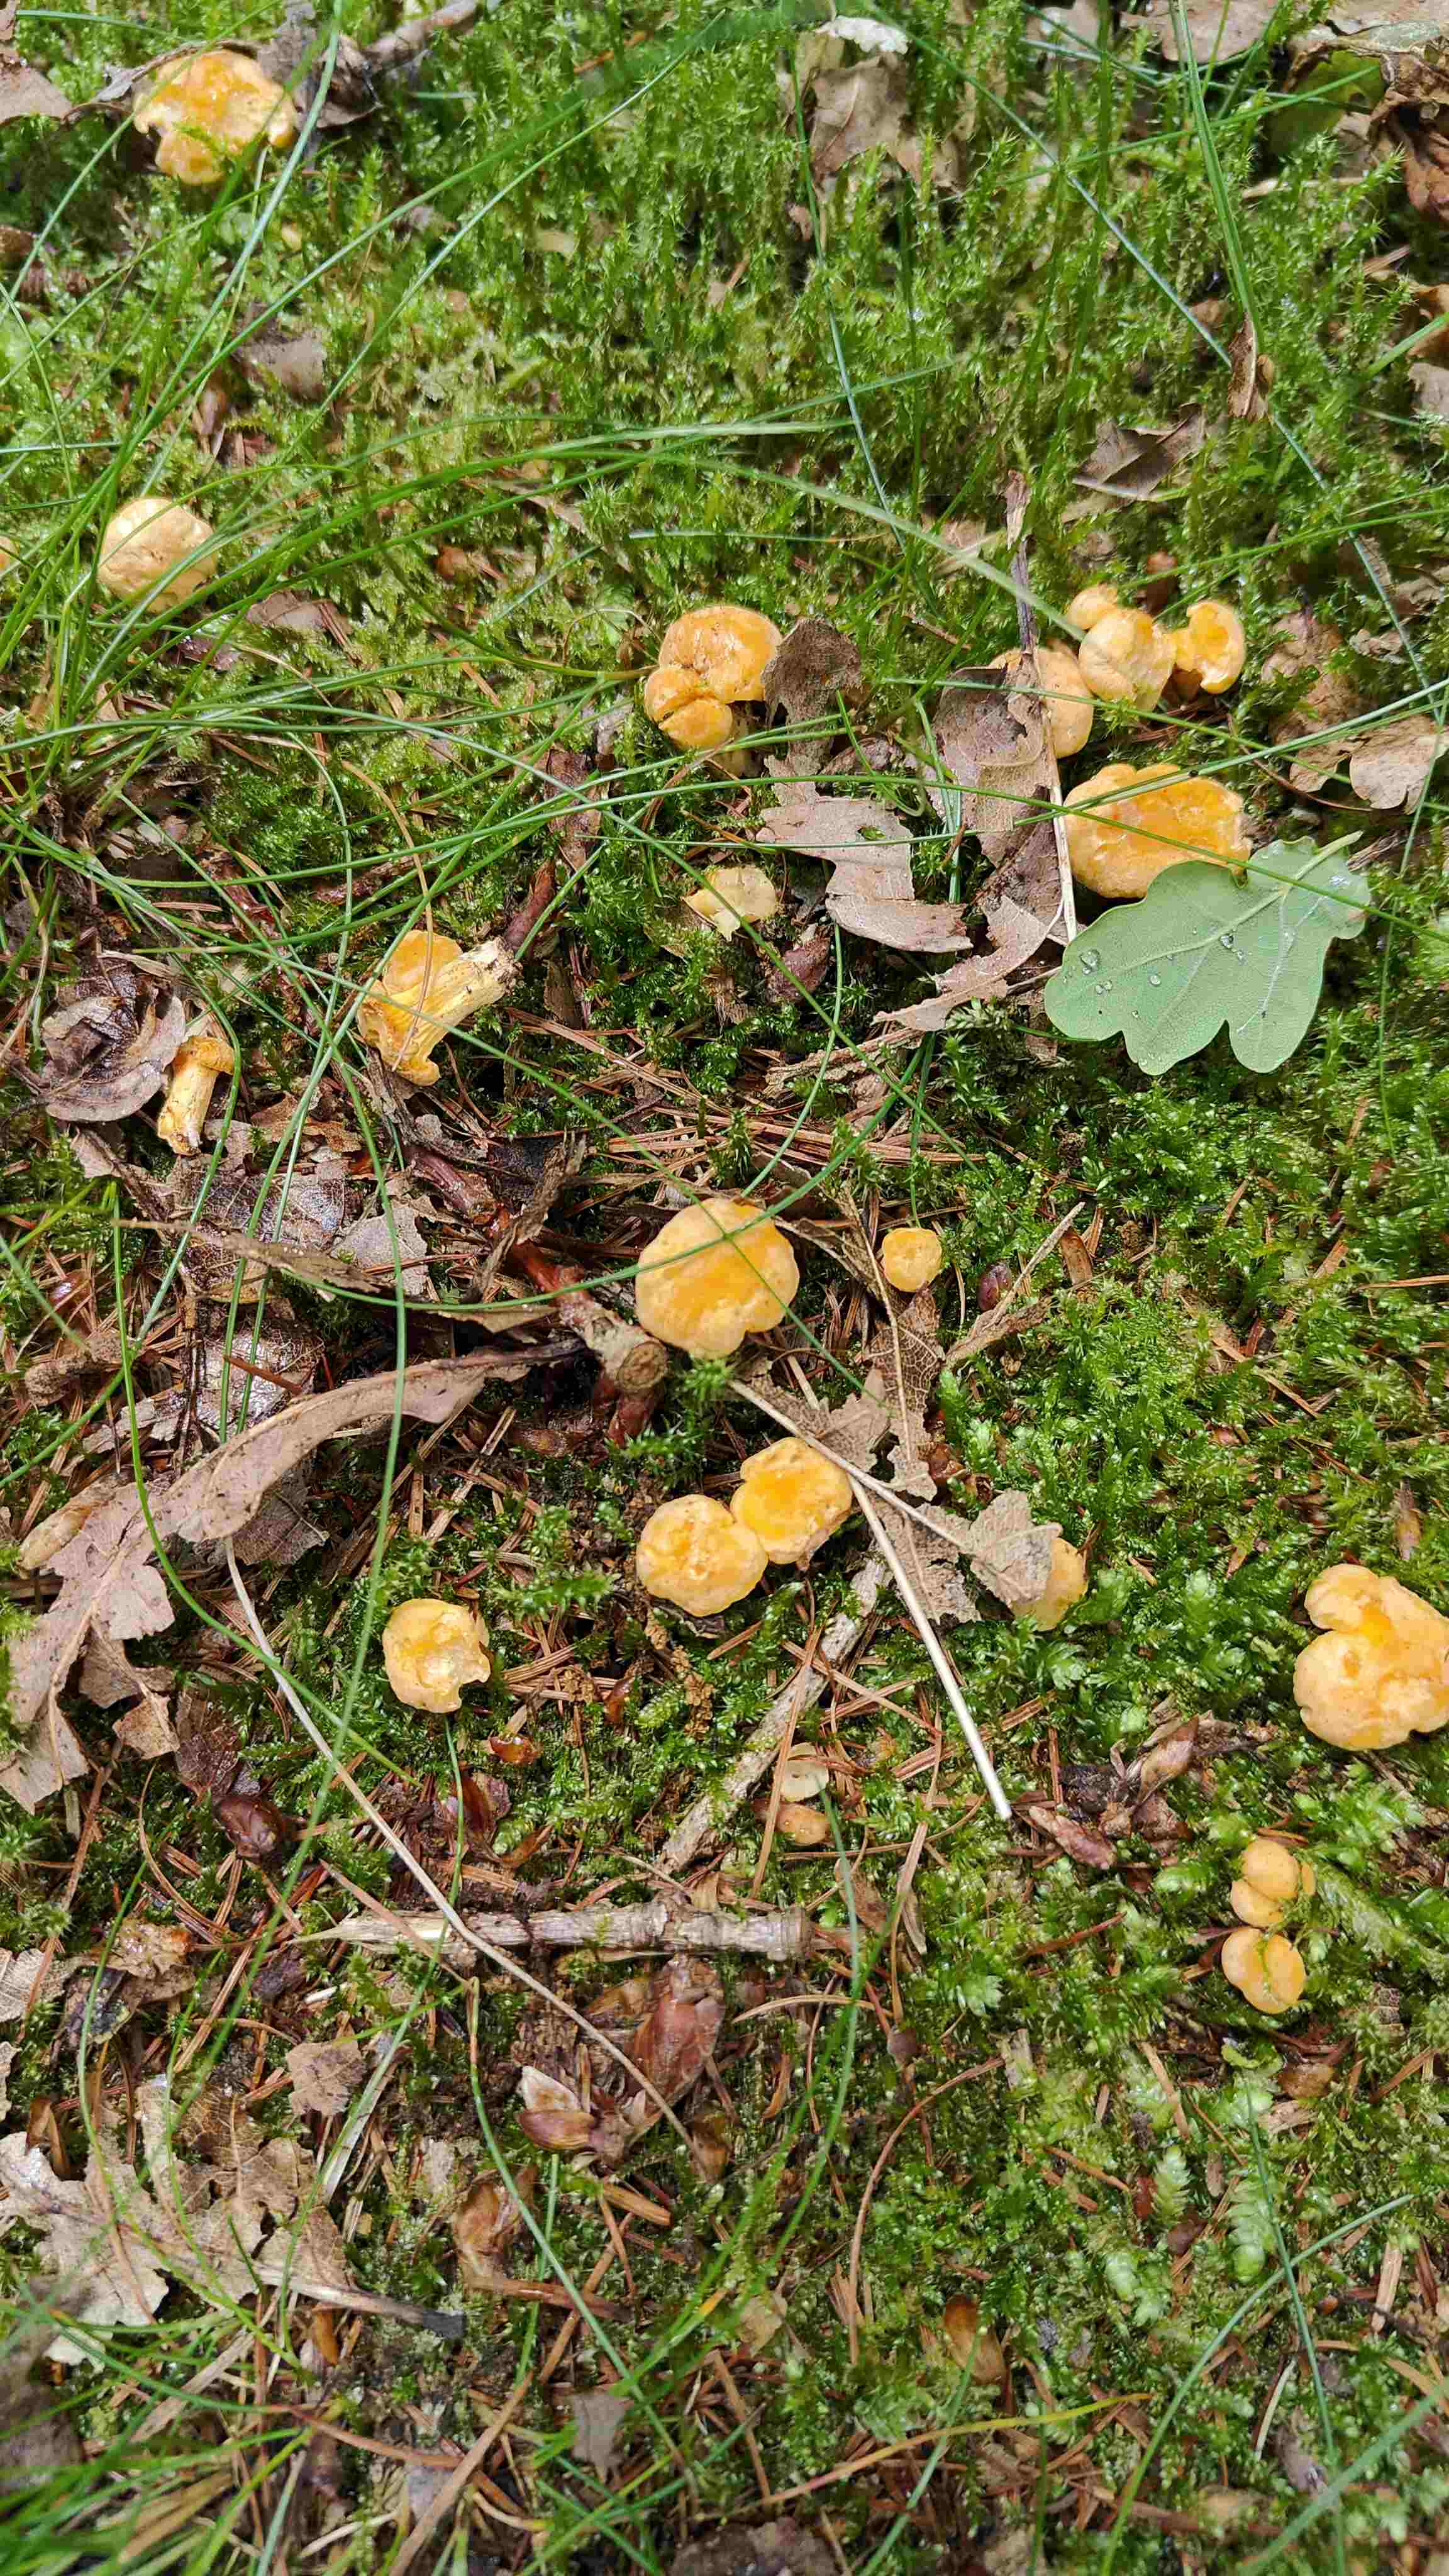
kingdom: Fungi
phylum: Basidiomycota
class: Agaricomycetes
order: Cantharellales
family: Hydnaceae
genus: Cantharellus
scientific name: Cantharellus cibarius
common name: almindelig kantarel
